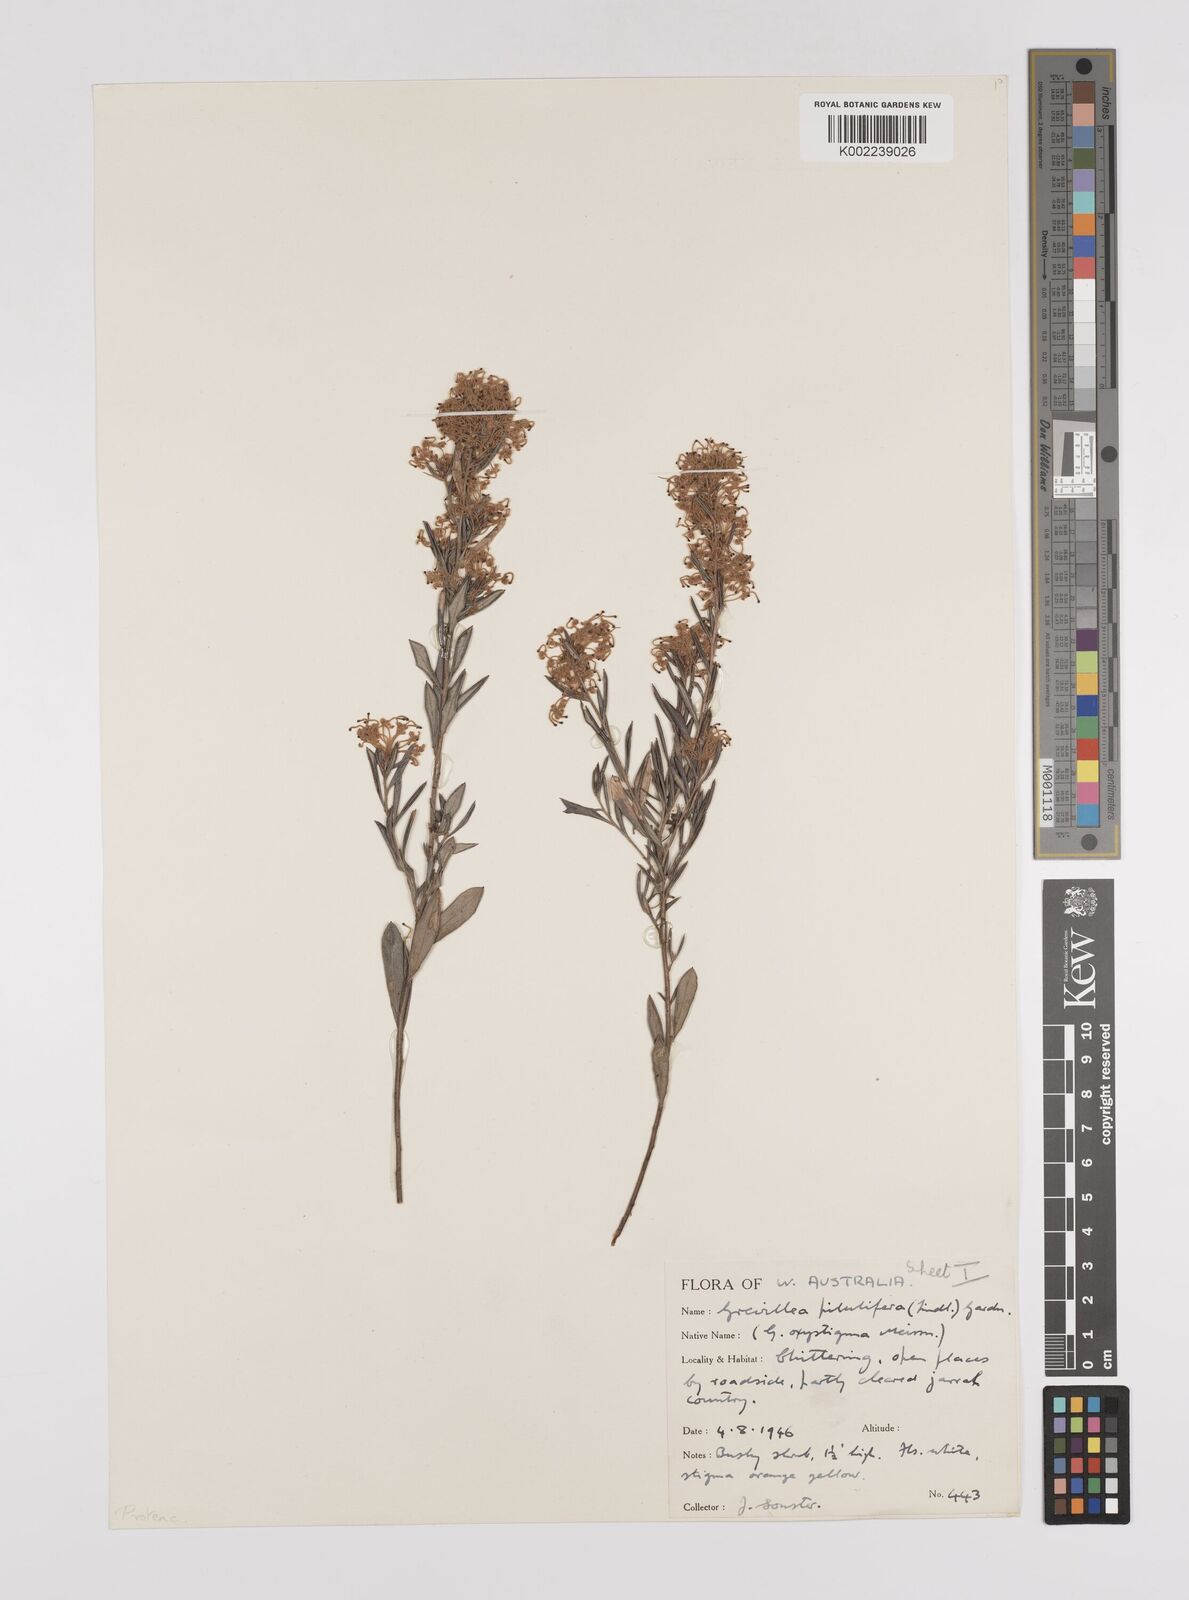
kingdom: Plantae
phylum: Tracheophyta
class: Magnoliopsida
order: Proteales
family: Proteaceae
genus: Grevillea
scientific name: Grevillea pilulifera
